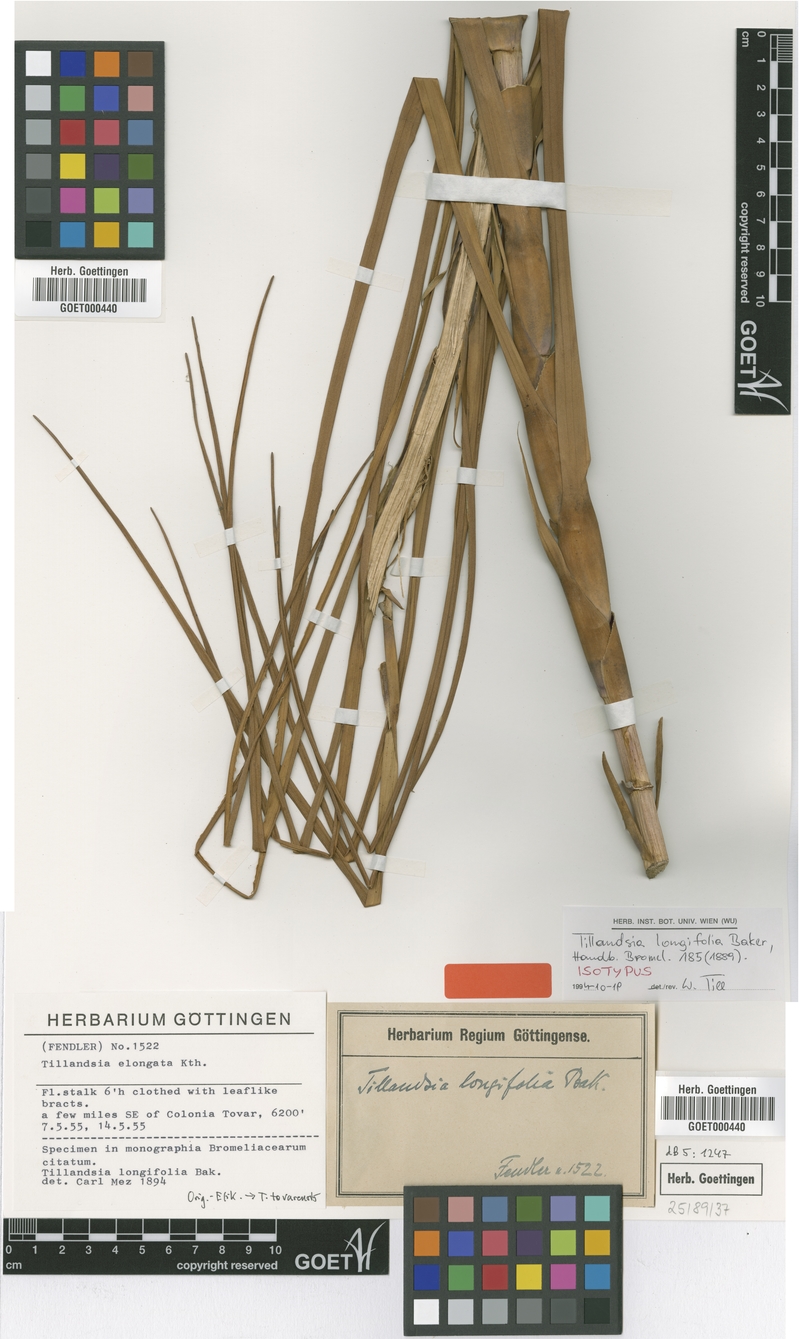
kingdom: Plantae
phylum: Tracheophyta
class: Liliopsida
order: Poales
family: Bromeliaceae
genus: Tillandsia
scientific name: Tillandsia longifolia
